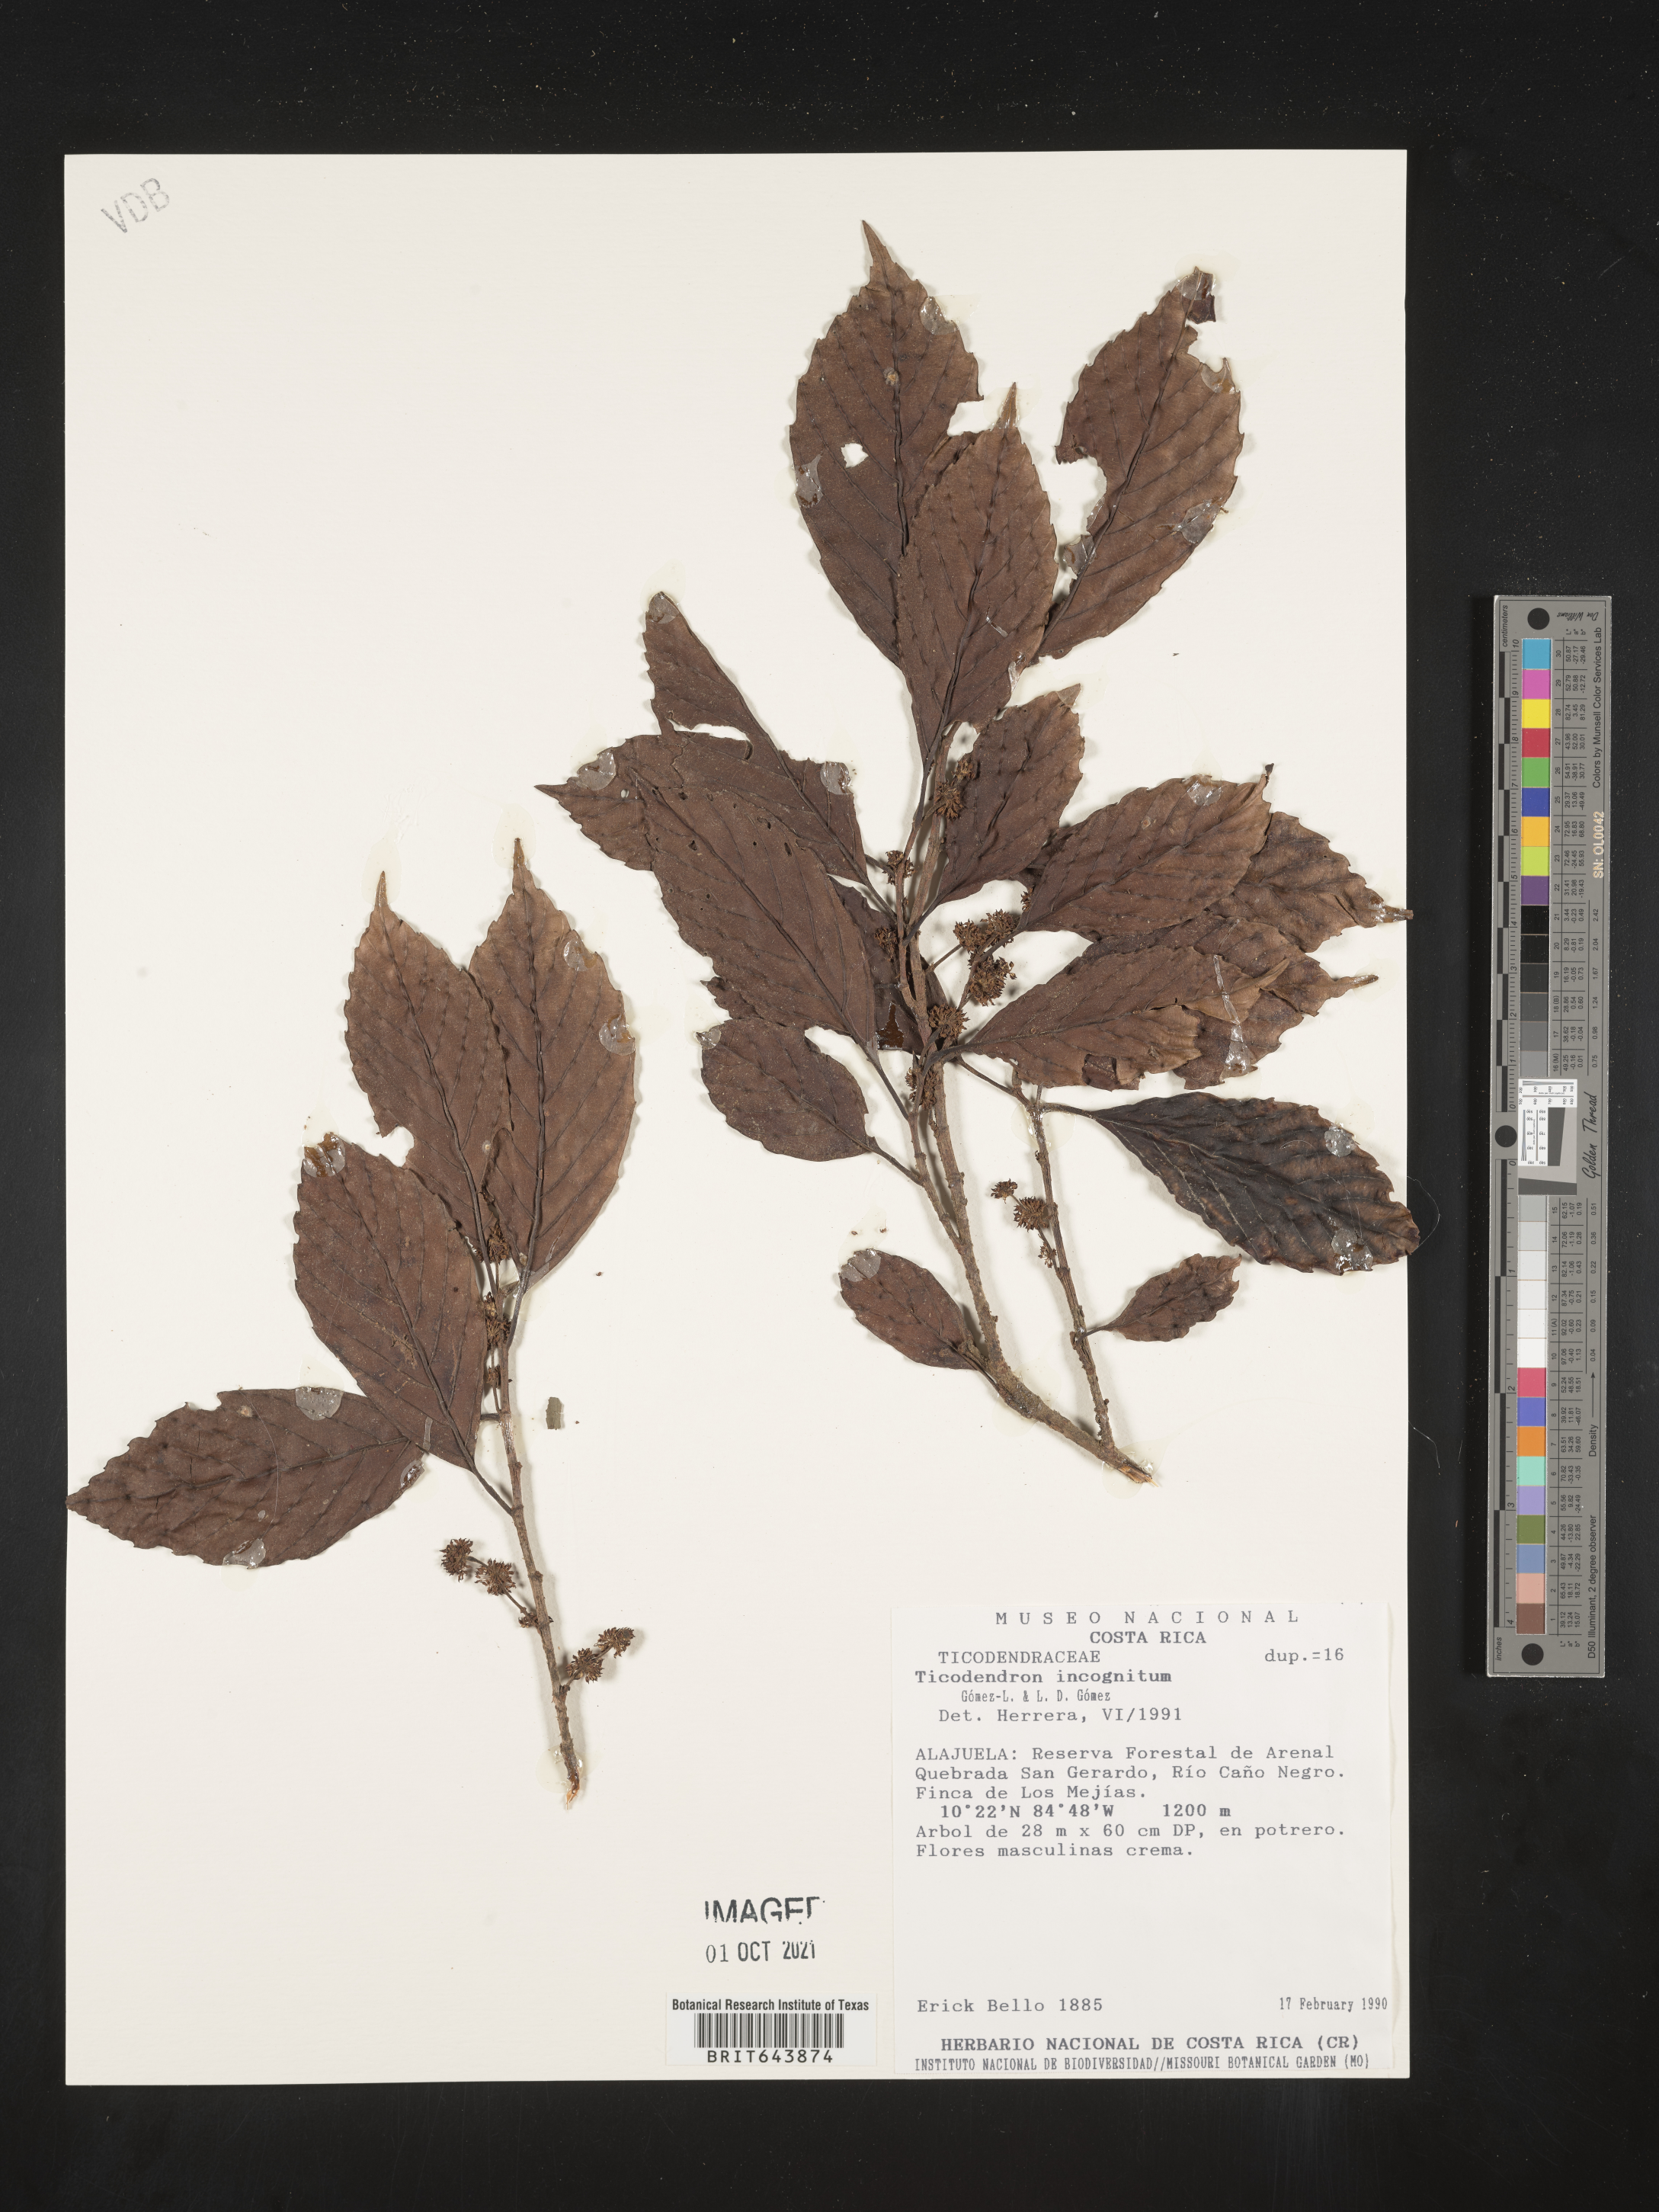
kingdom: Plantae
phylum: Tracheophyta
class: Magnoliopsida
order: Fagales
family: Ticodendraceae
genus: Ticodendron
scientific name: Ticodendron
